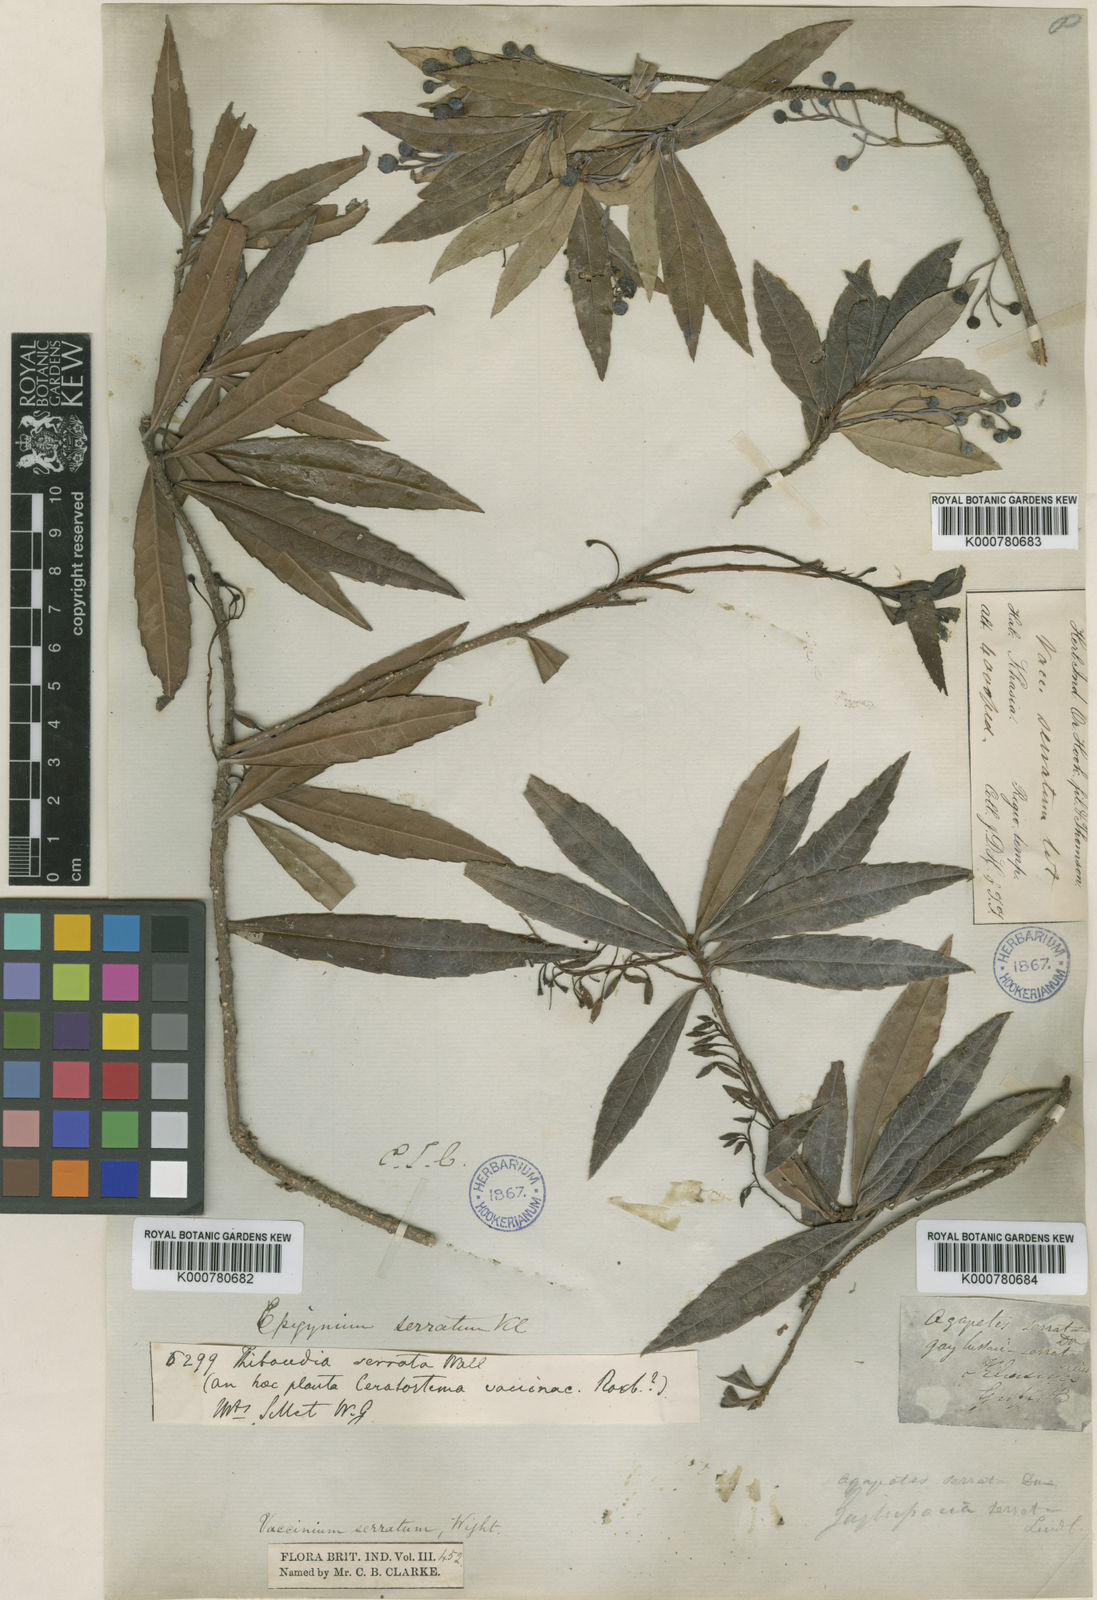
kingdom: Plantae
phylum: Tracheophyta
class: Magnoliopsida
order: Ericales
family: Ericaceae
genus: Vaccinium
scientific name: Vaccinium vacciniaceum
